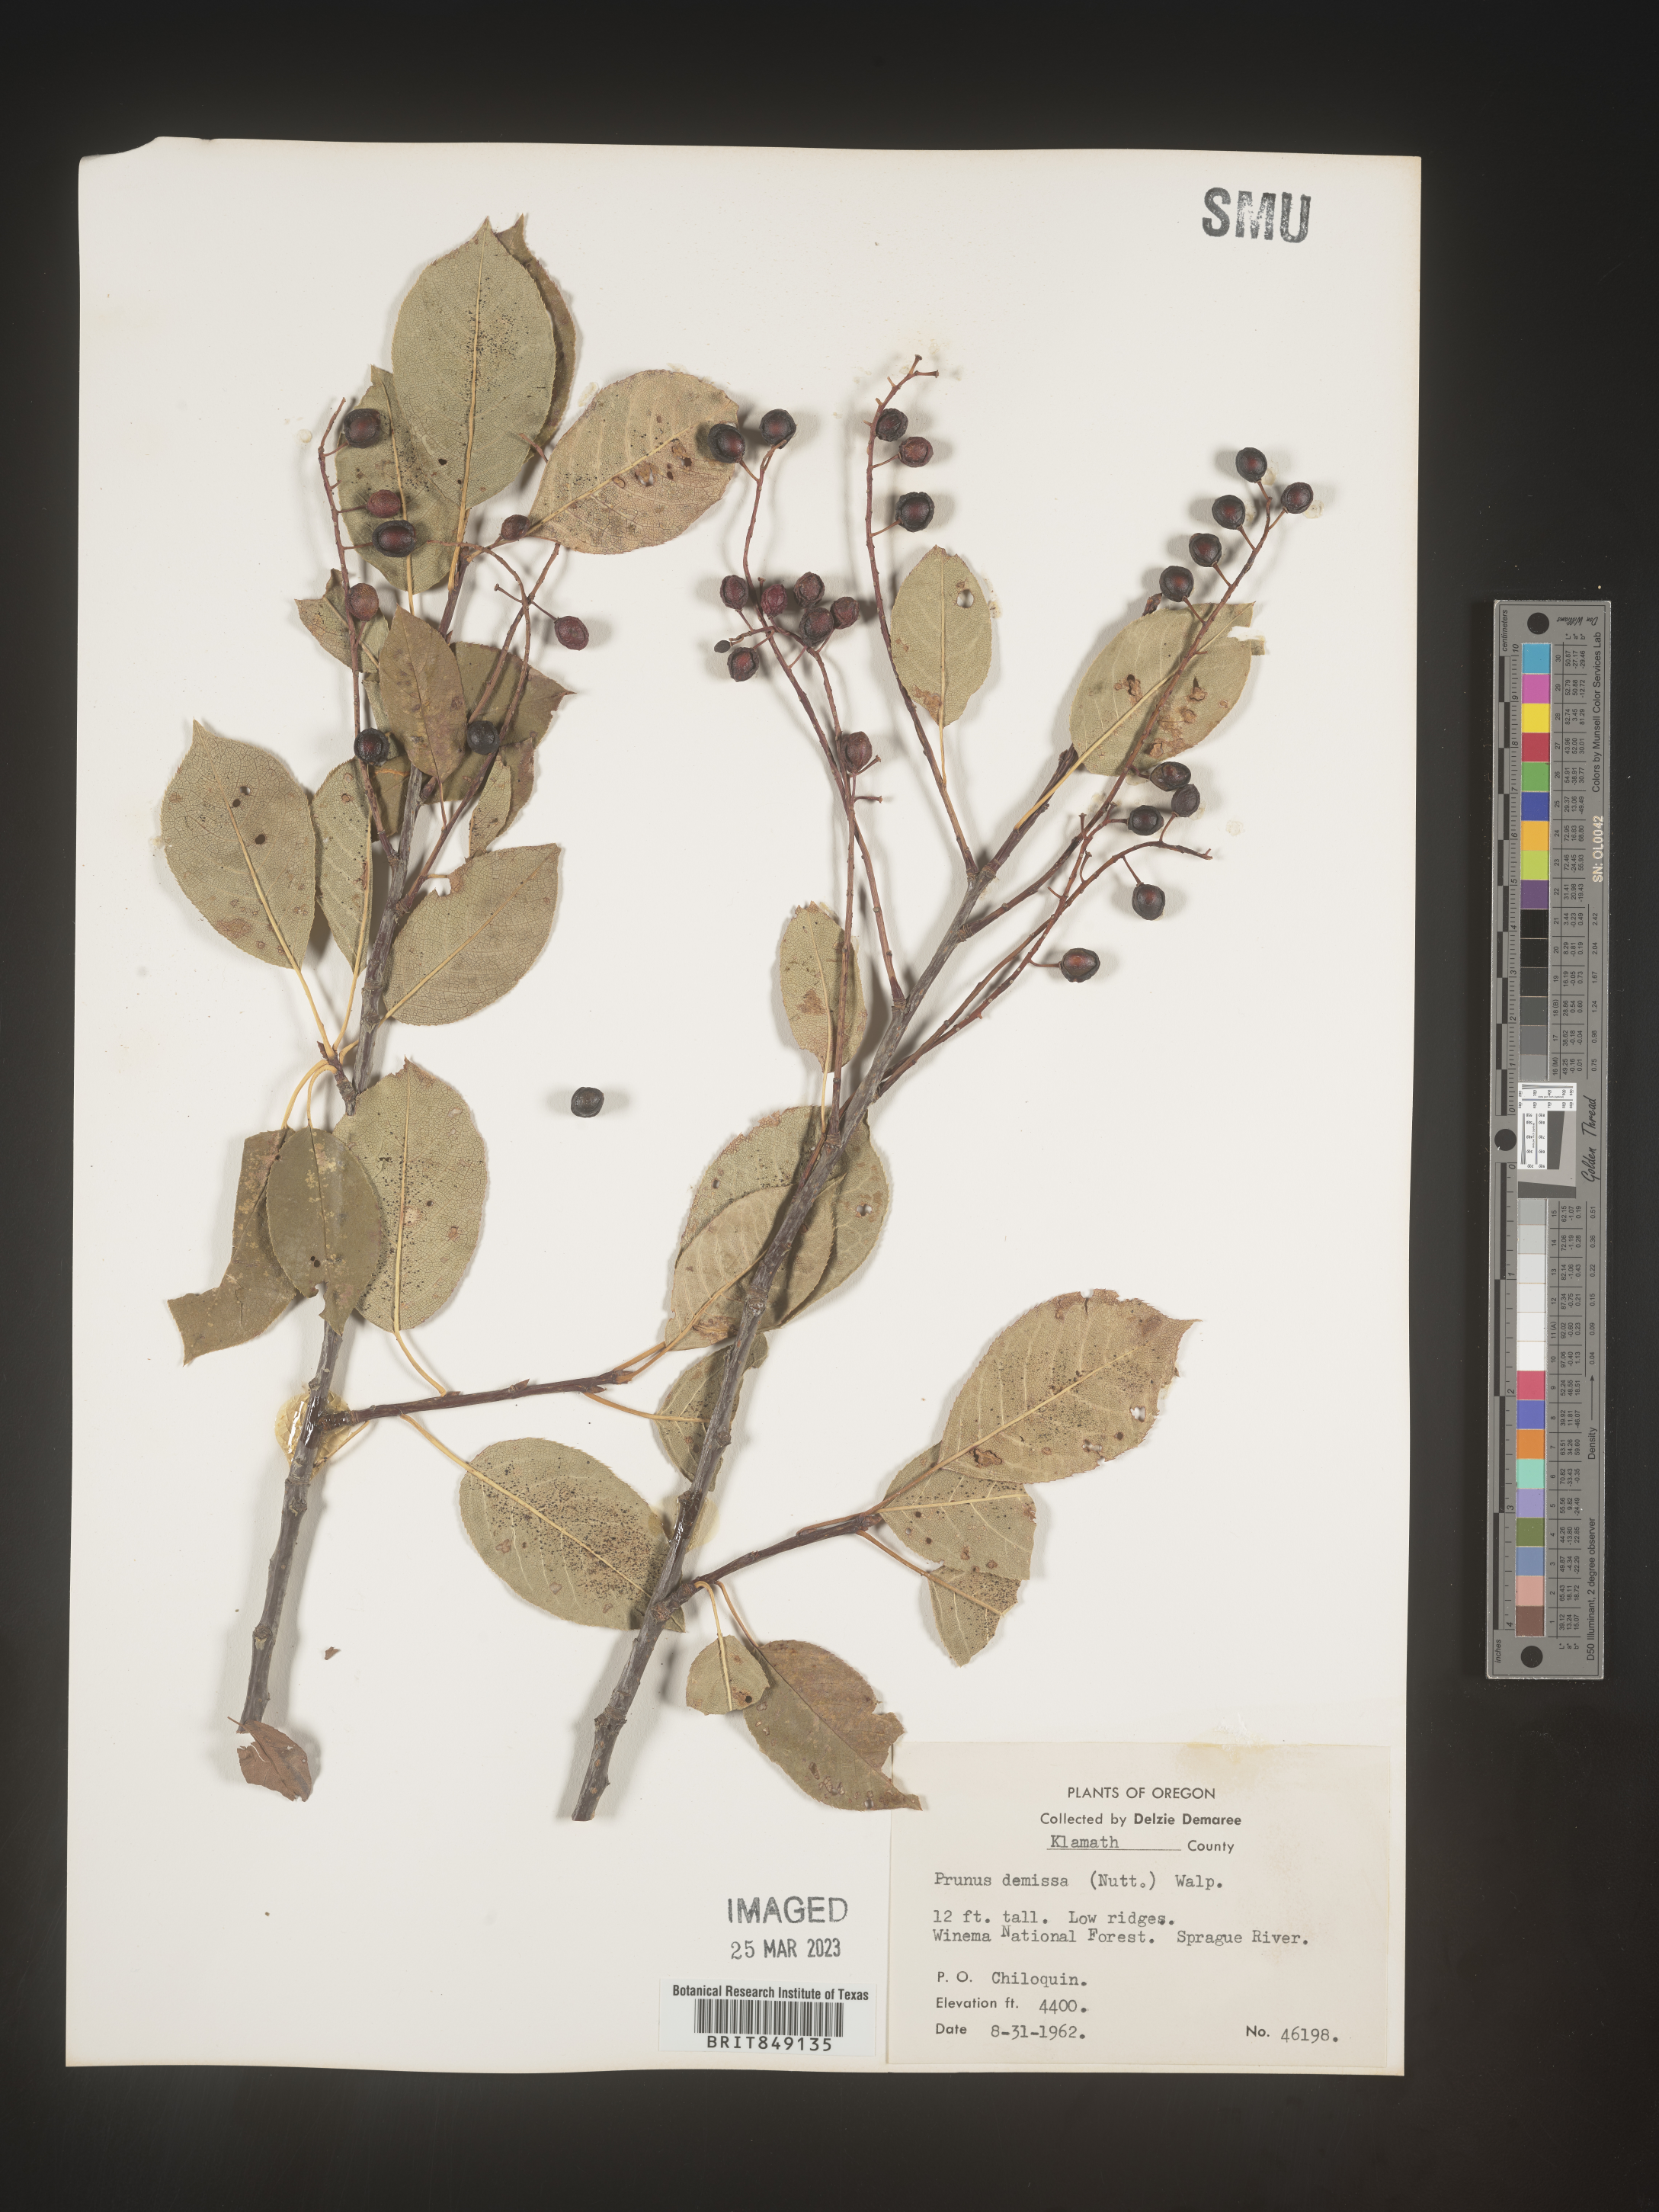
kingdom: Plantae
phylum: Tracheophyta
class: Magnoliopsida
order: Rosales
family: Rosaceae
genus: Prunus
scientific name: Prunus
